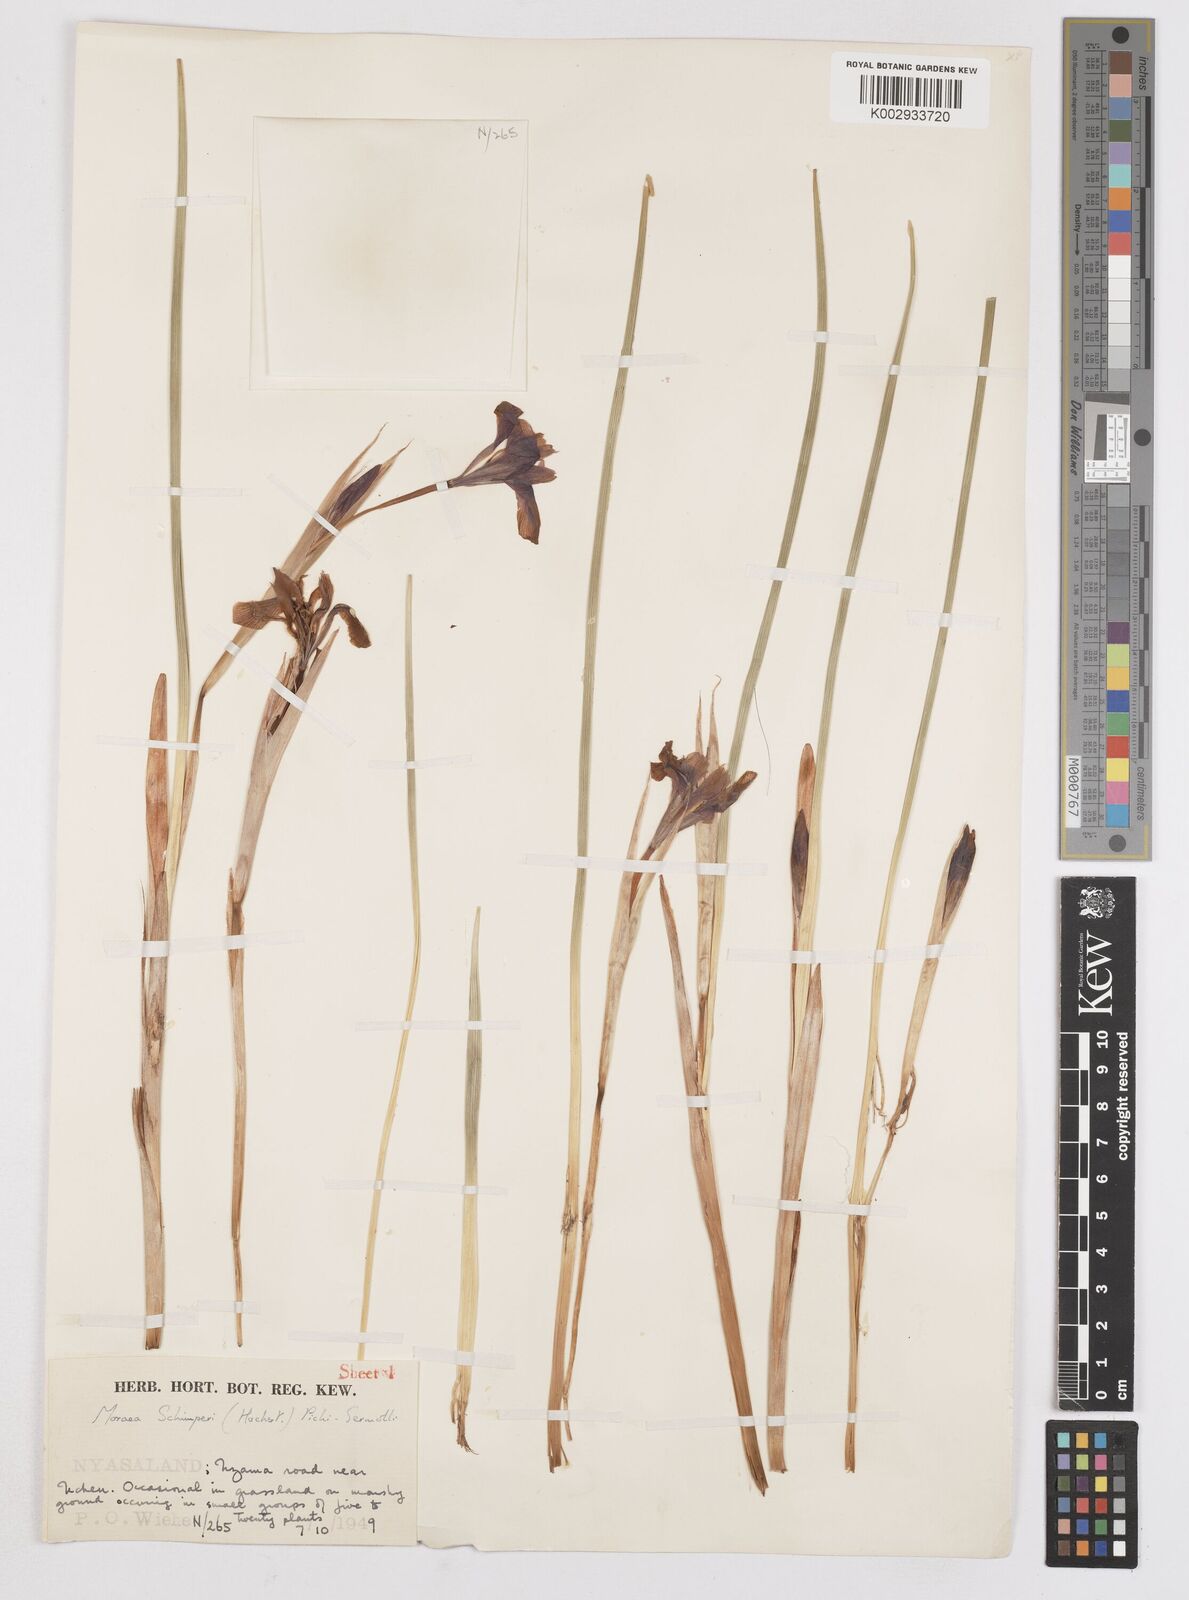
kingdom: Plantae
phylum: Tracheophyta
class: Liliopsida
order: Asparagales
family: Iridaceae
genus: Moraea
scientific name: Moraea schimperi
